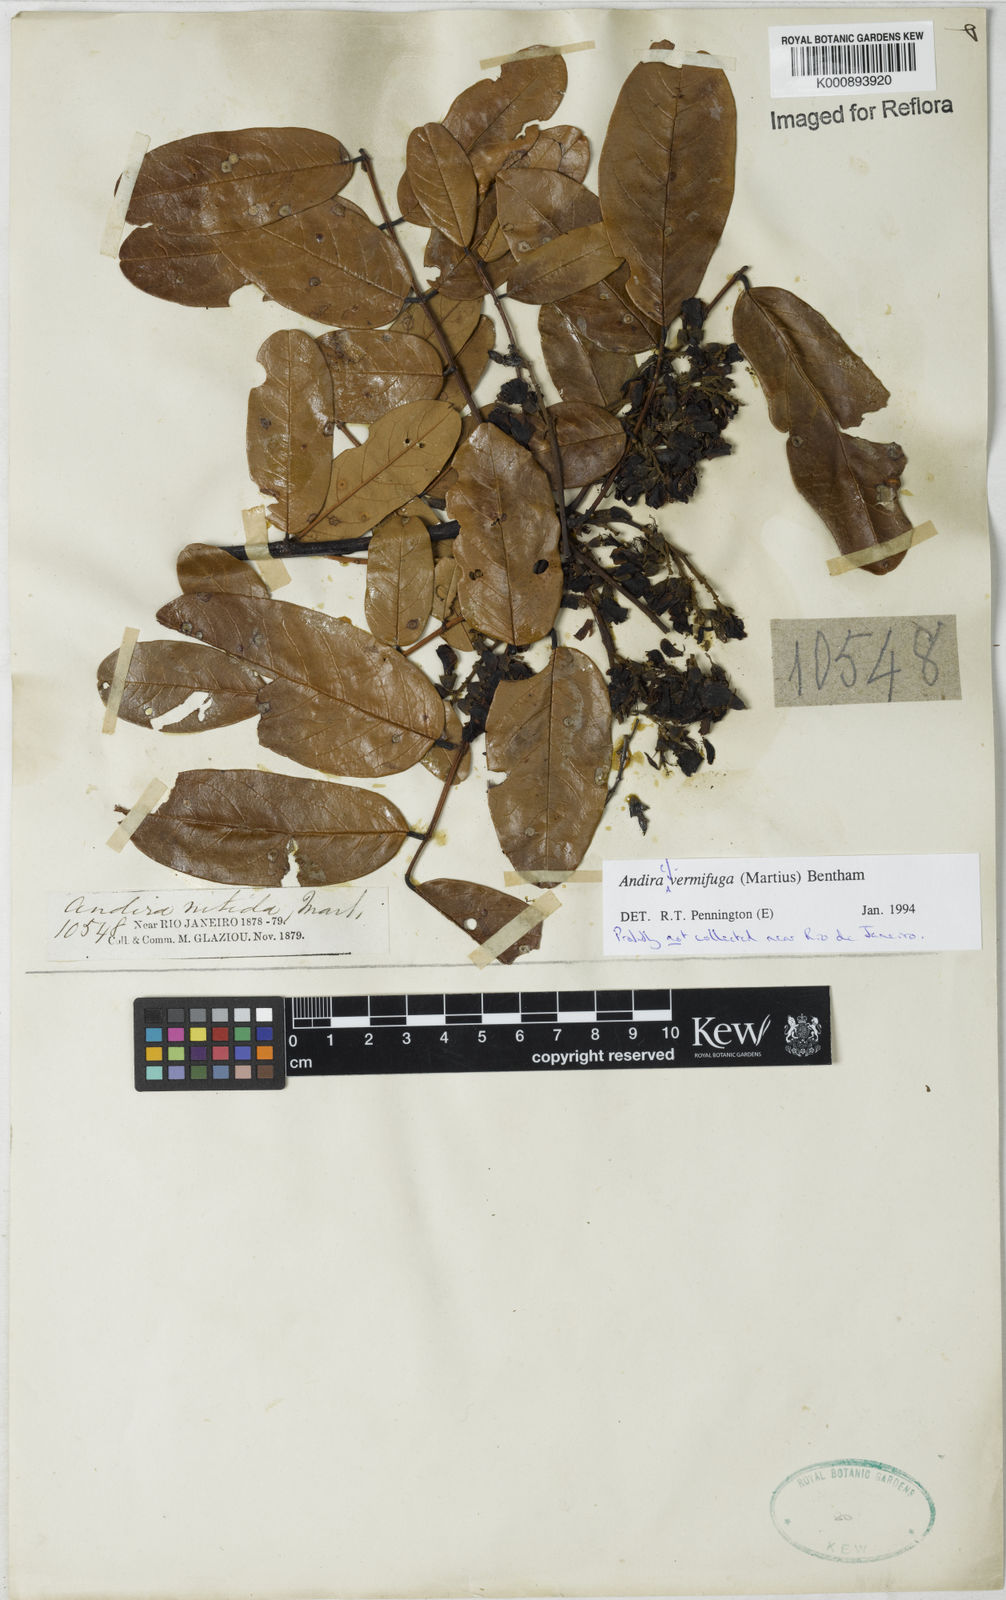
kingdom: Plantae
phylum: Tracheophyta
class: Magnoliopsida
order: Fabales
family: Fabaceae
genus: Andira
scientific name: Andira vermifuga
